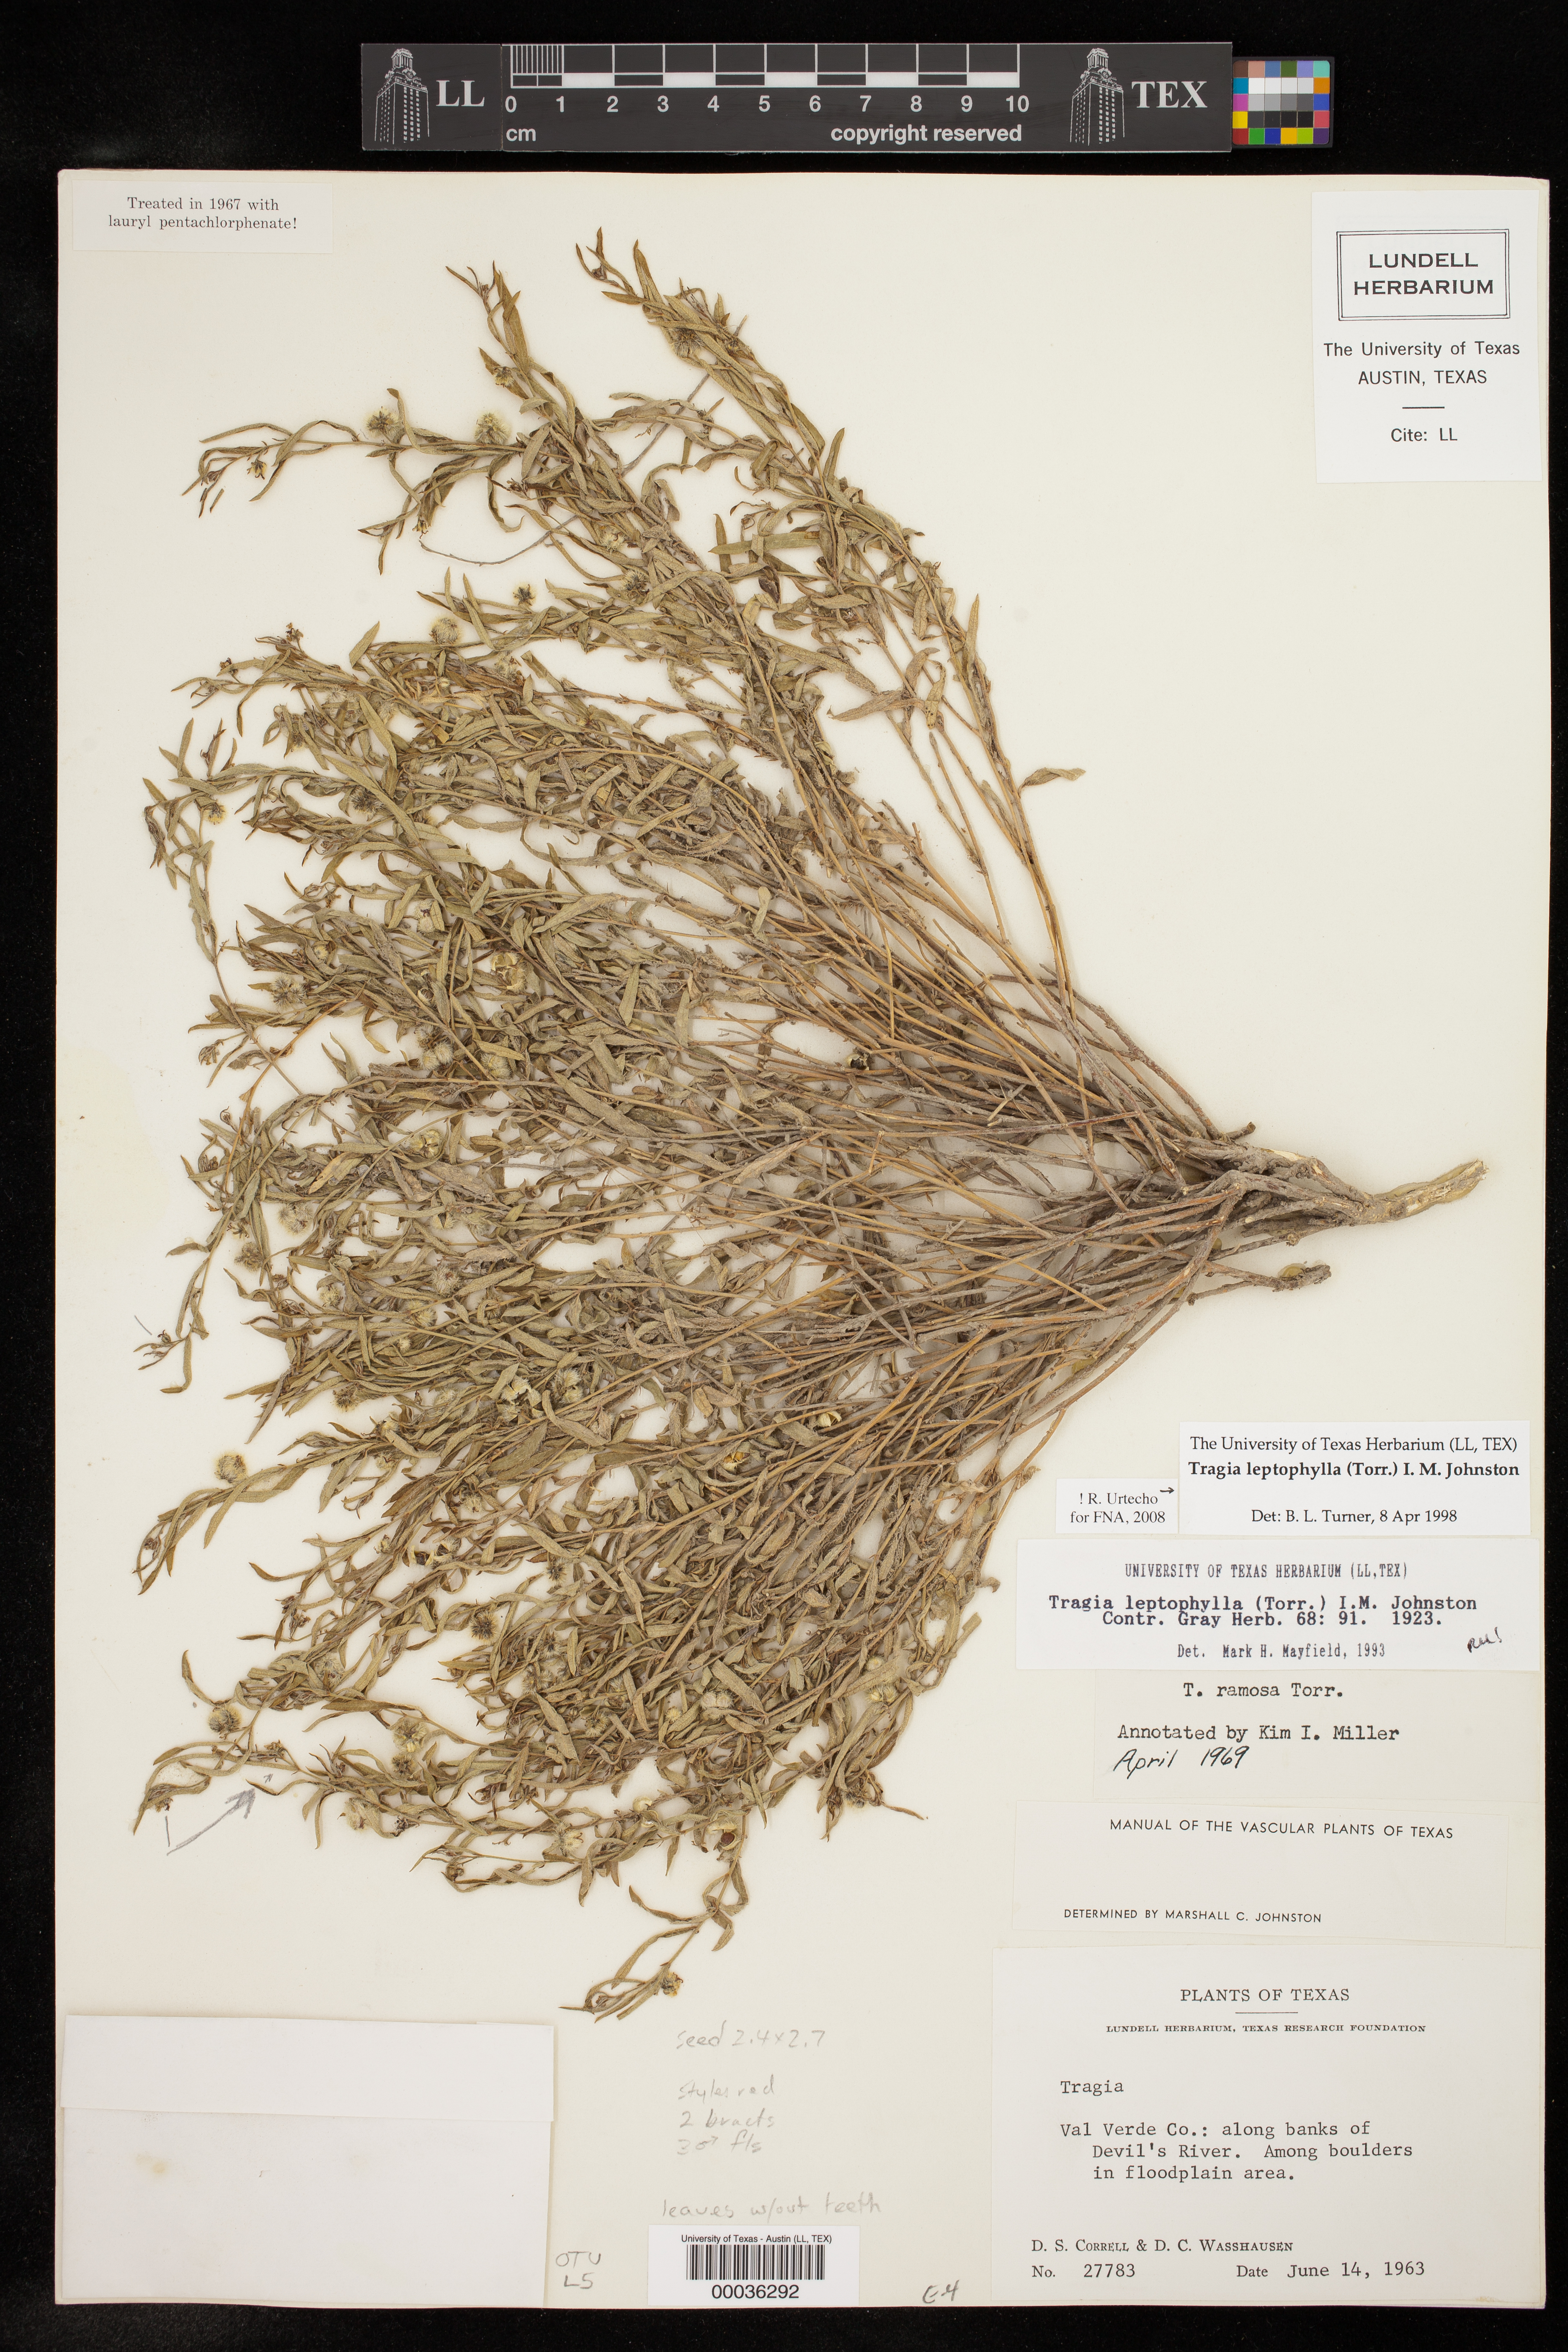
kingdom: Plantae
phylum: Tracheophyta
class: Magnoliopsida
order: Malpighiales
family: Euphorbiaceae
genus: Tragia
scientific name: Tragia leptophylla
